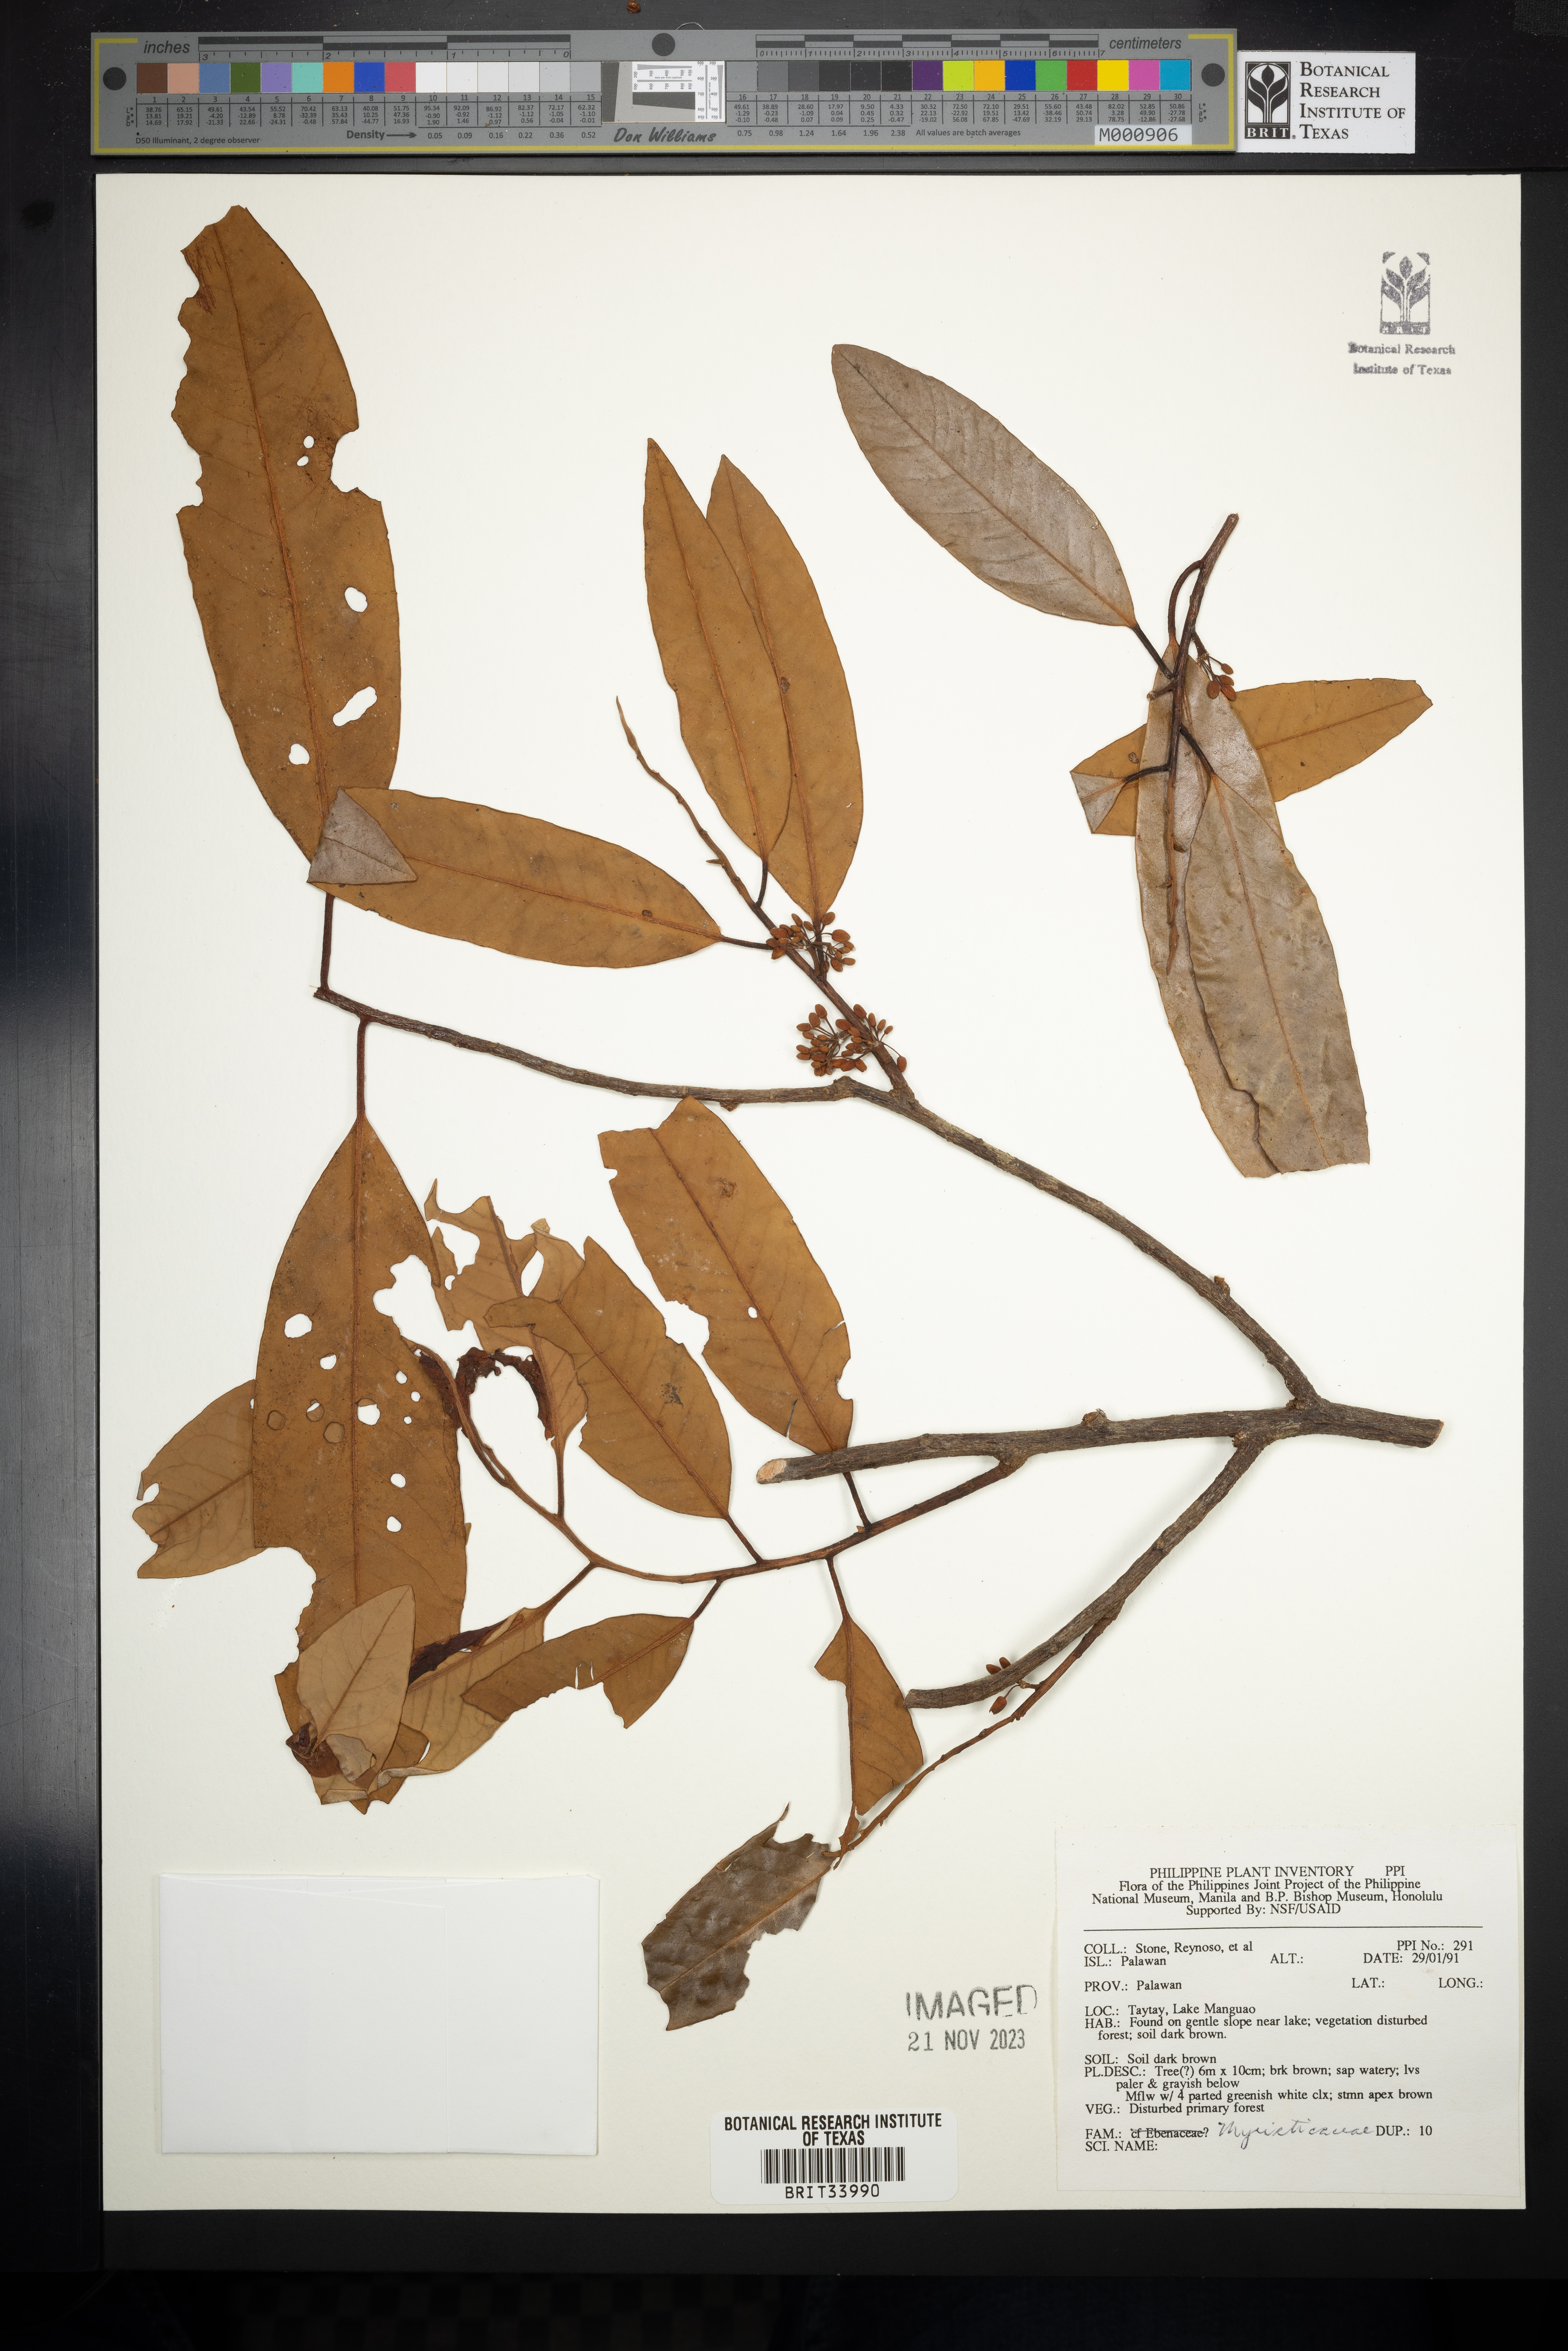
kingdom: Plantae
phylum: Tracheophyta
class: Magnoliopsida
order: Magnoliales
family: Myristicaceae
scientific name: Myristicaceae
